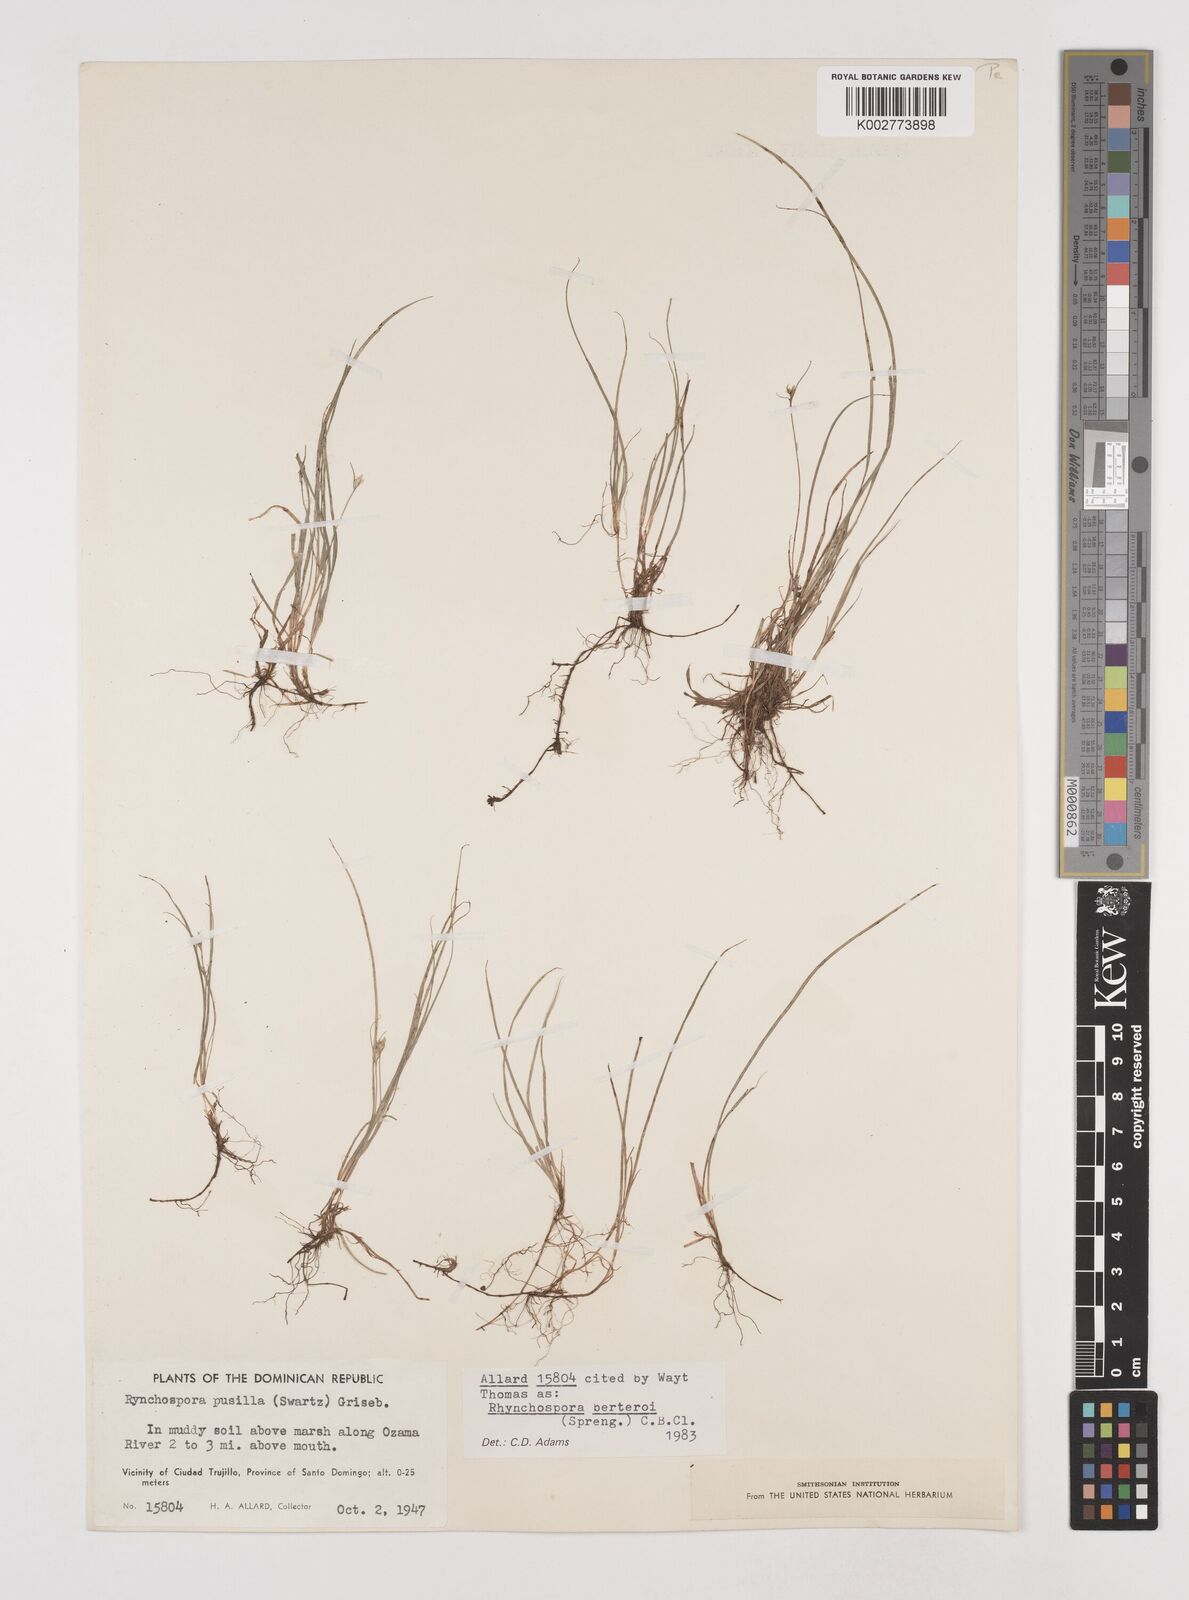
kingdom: Plantae
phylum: Tracheophyta
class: Liliopsida
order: Poales
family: Cyperaceae
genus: Rhynchospora
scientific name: Rhynchospora berteroi
